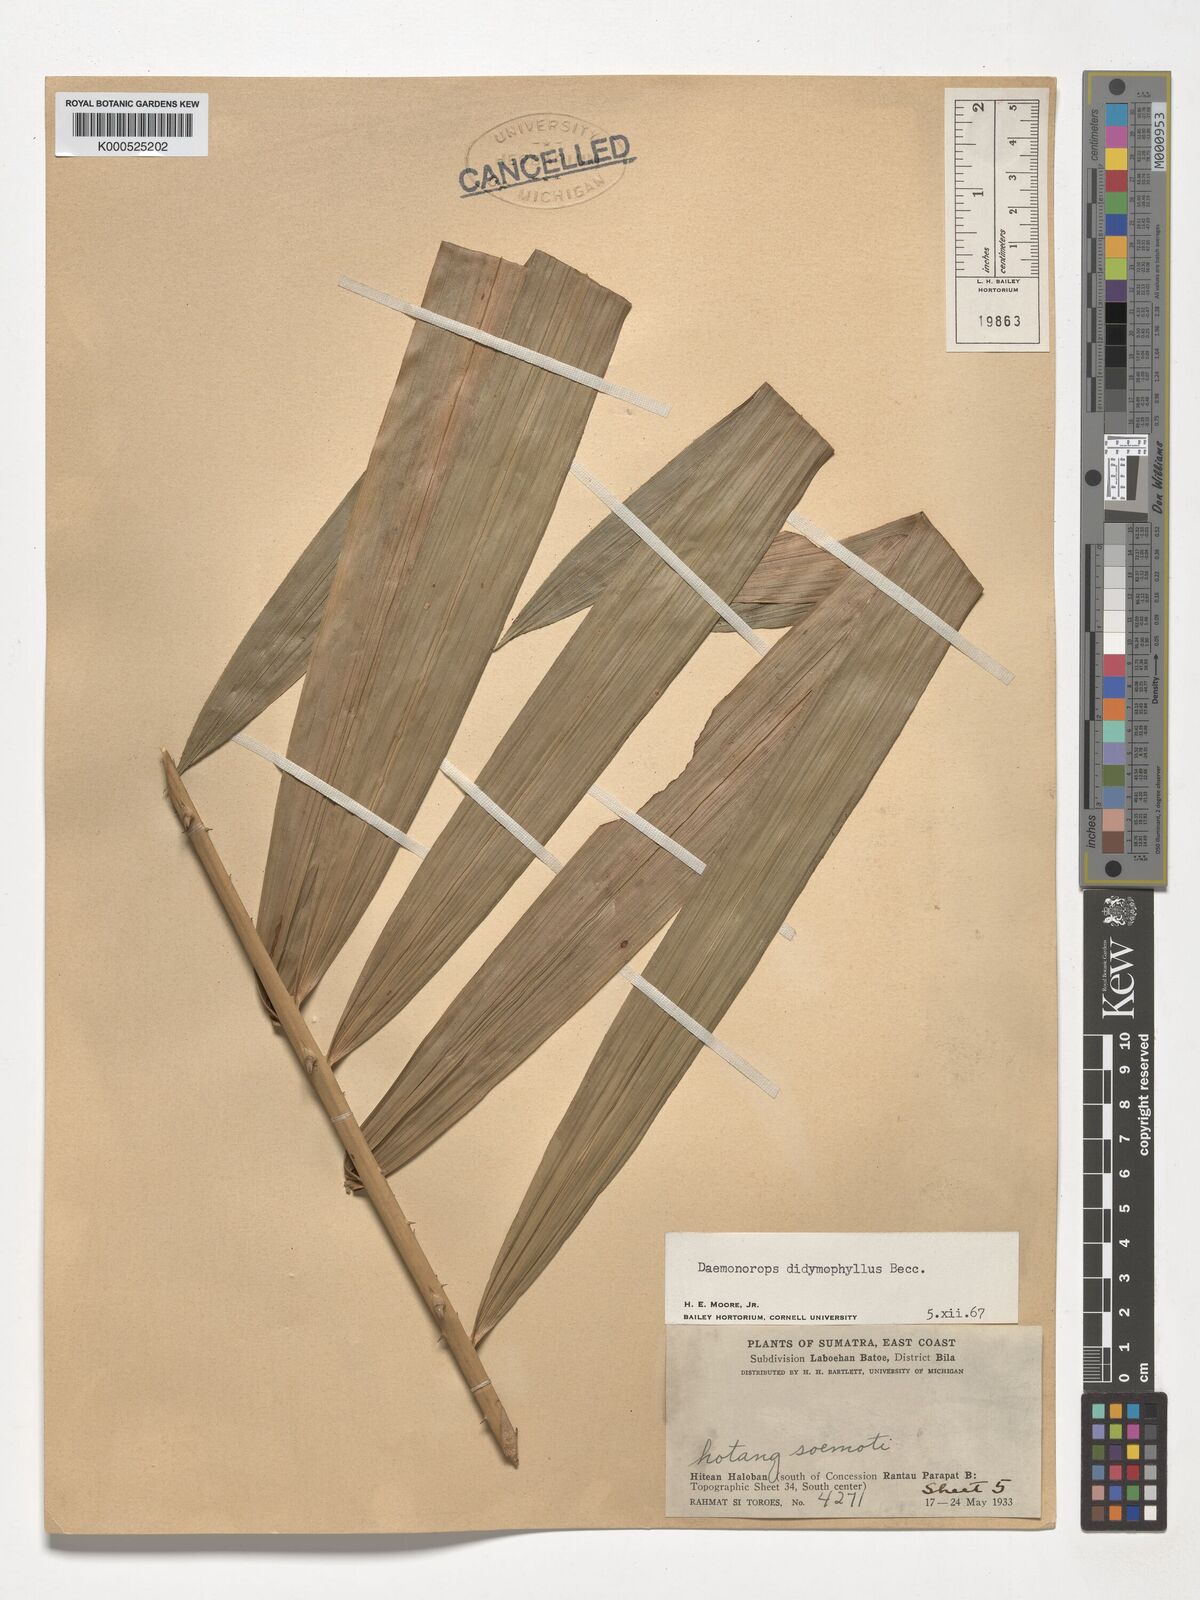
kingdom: Plantae
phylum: Tracheophyta
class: Liliopsida
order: Arecales
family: Arecaceae
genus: Calamus
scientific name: Calamus gracilipes
